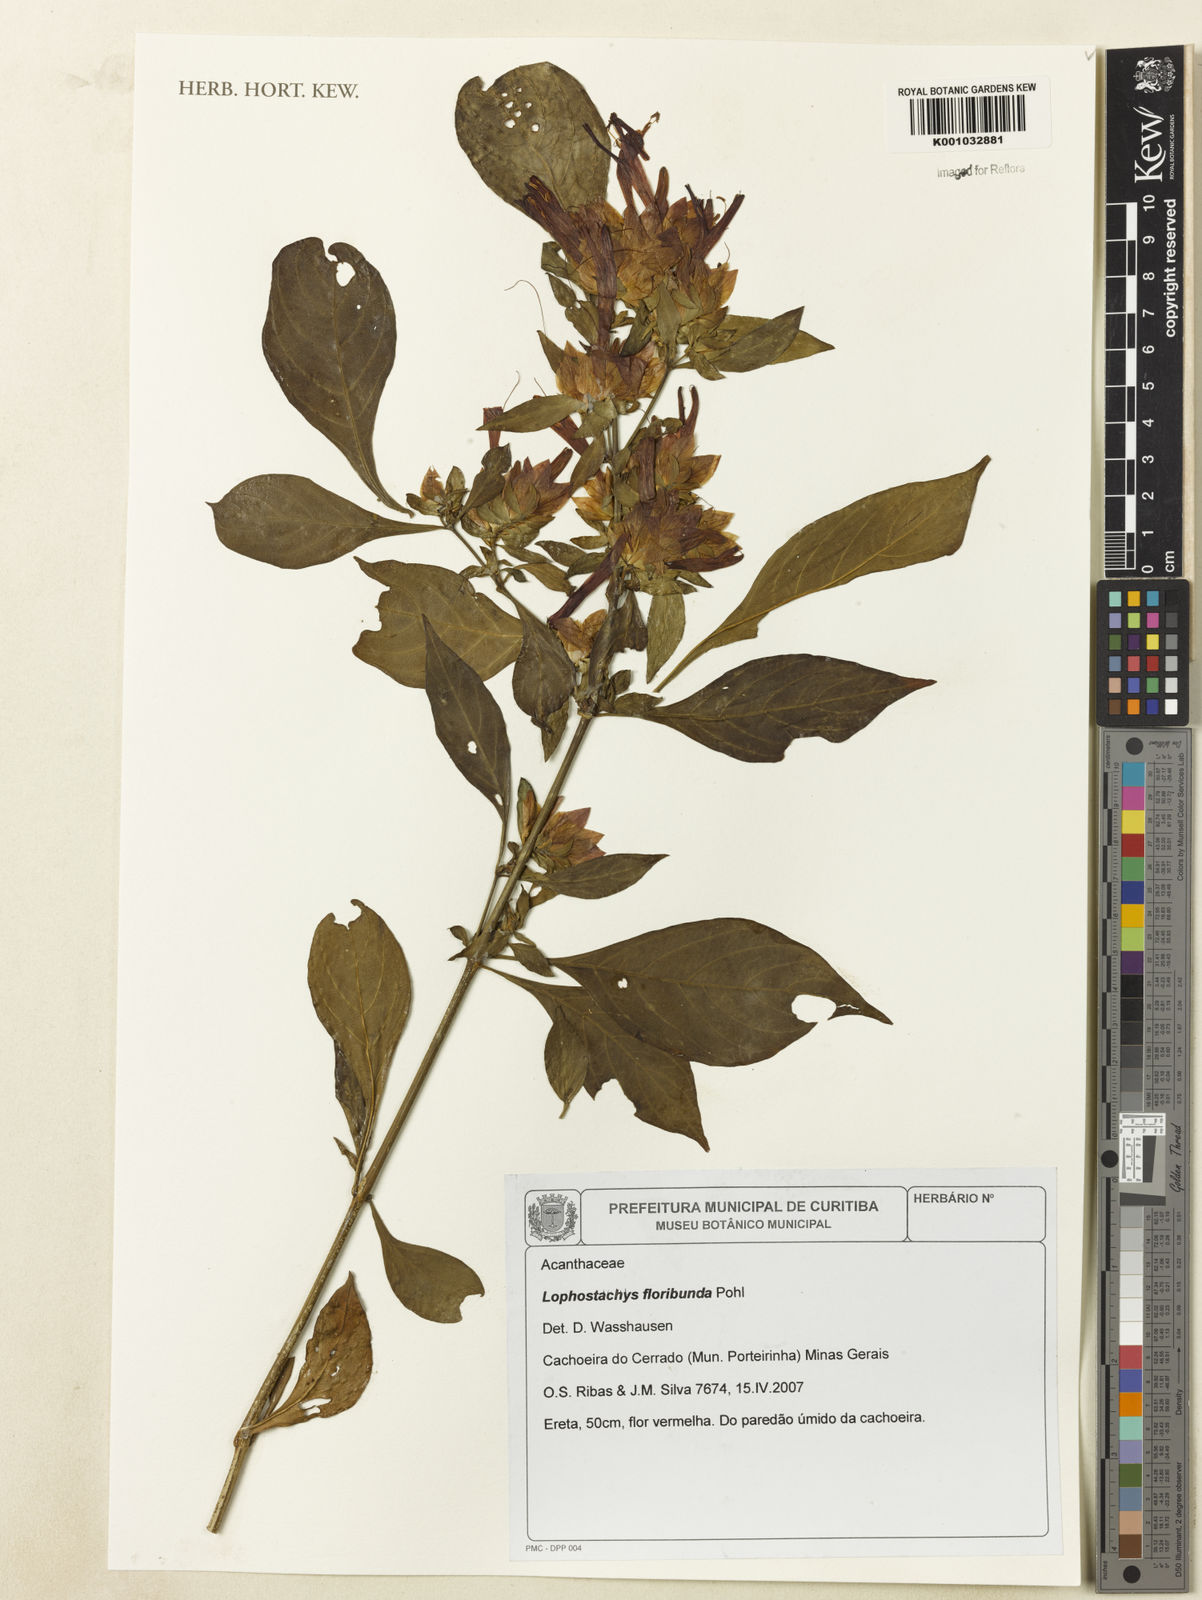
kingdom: Plantae
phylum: Tracheophyta
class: Magnoliopsida
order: Lamiales
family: Acanthaceae
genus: Lepidagathis
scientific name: Lepidagathis floribunda
